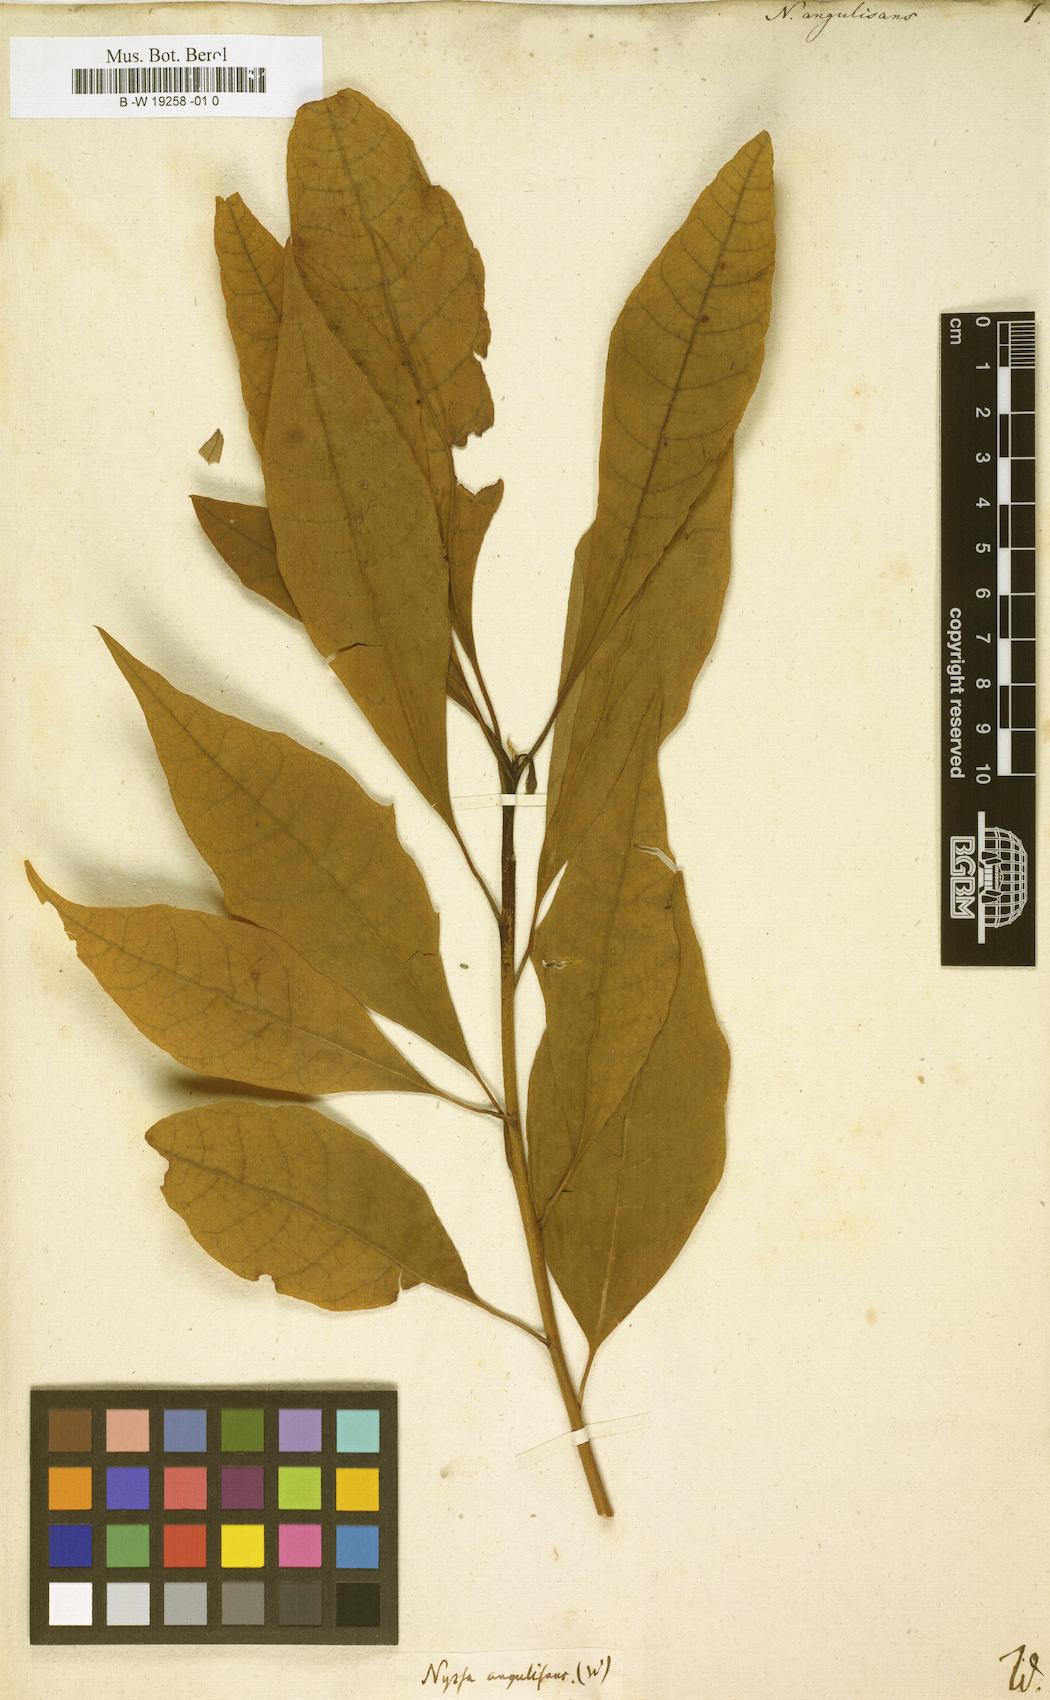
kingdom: Plantae
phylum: Tracheophyta
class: Magnoliopsida
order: Cornales
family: Nyssaceae
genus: Nyssa
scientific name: Nyssa aquatica
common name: Swamp tupelo
